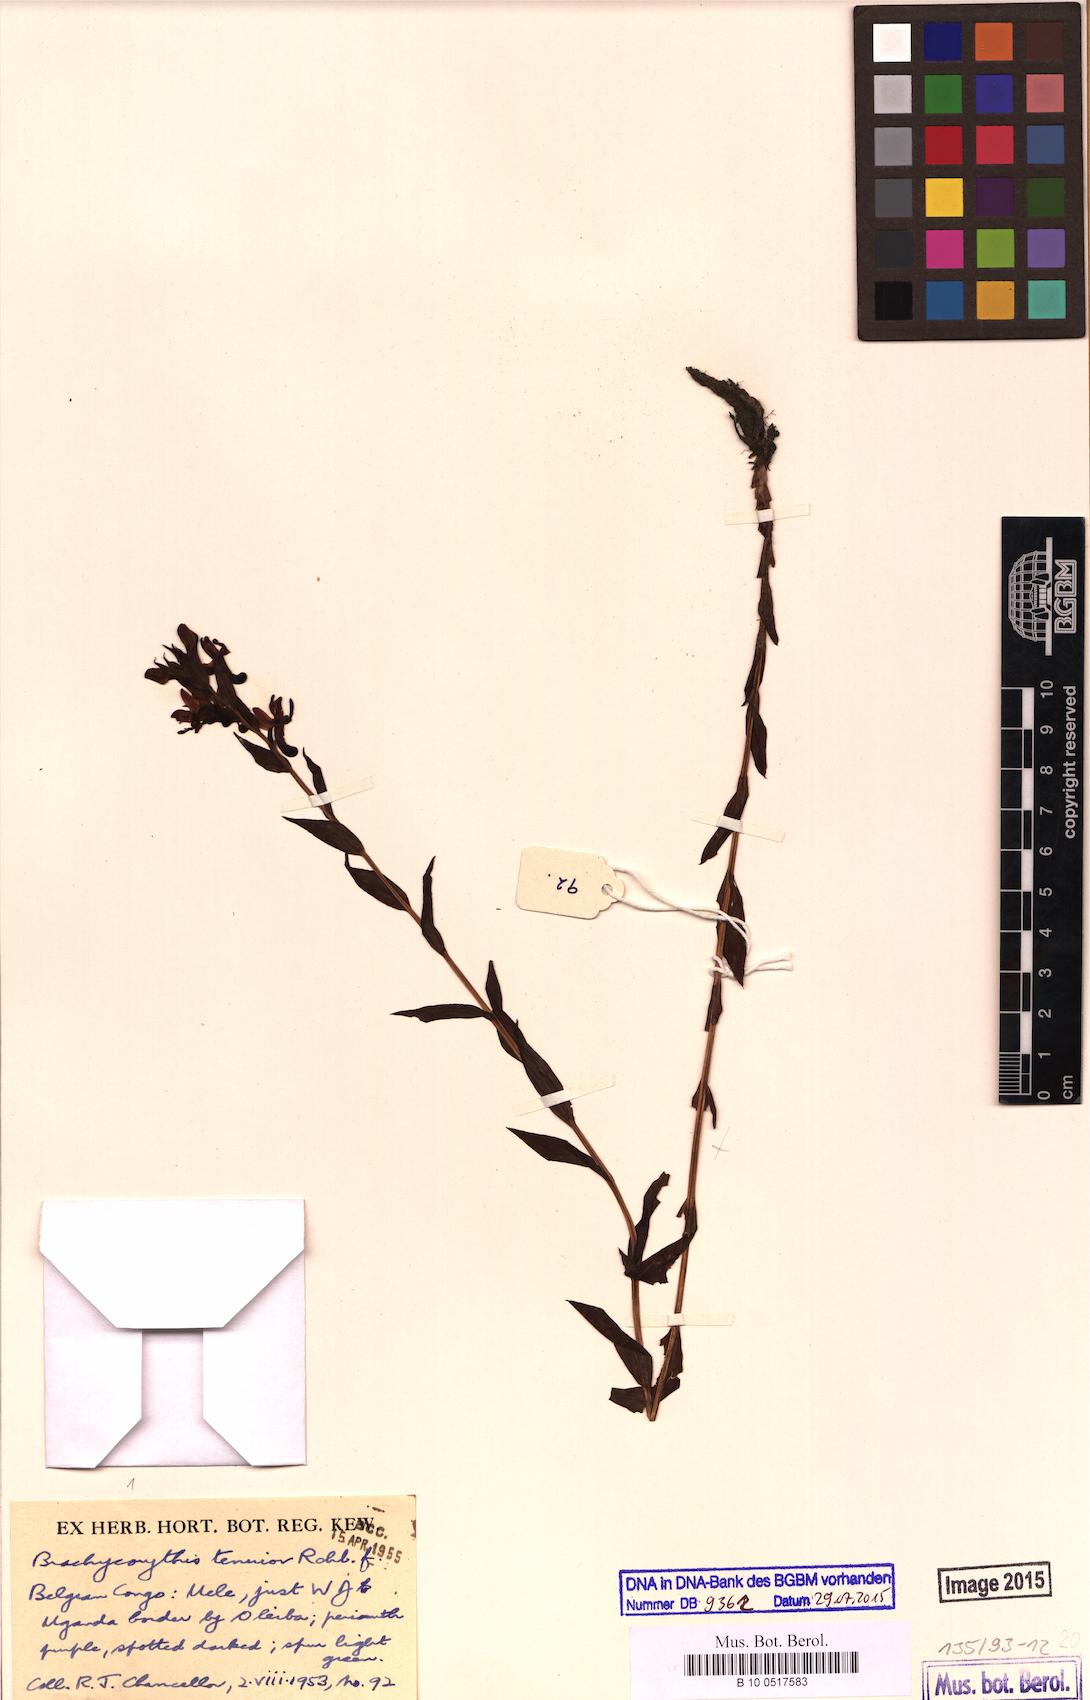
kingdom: Plantae
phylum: Tracheophyta
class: Liliopsida
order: Asparagales
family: Orchidaceae
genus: Brachycorythis
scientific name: Brachycorythis tenuior
